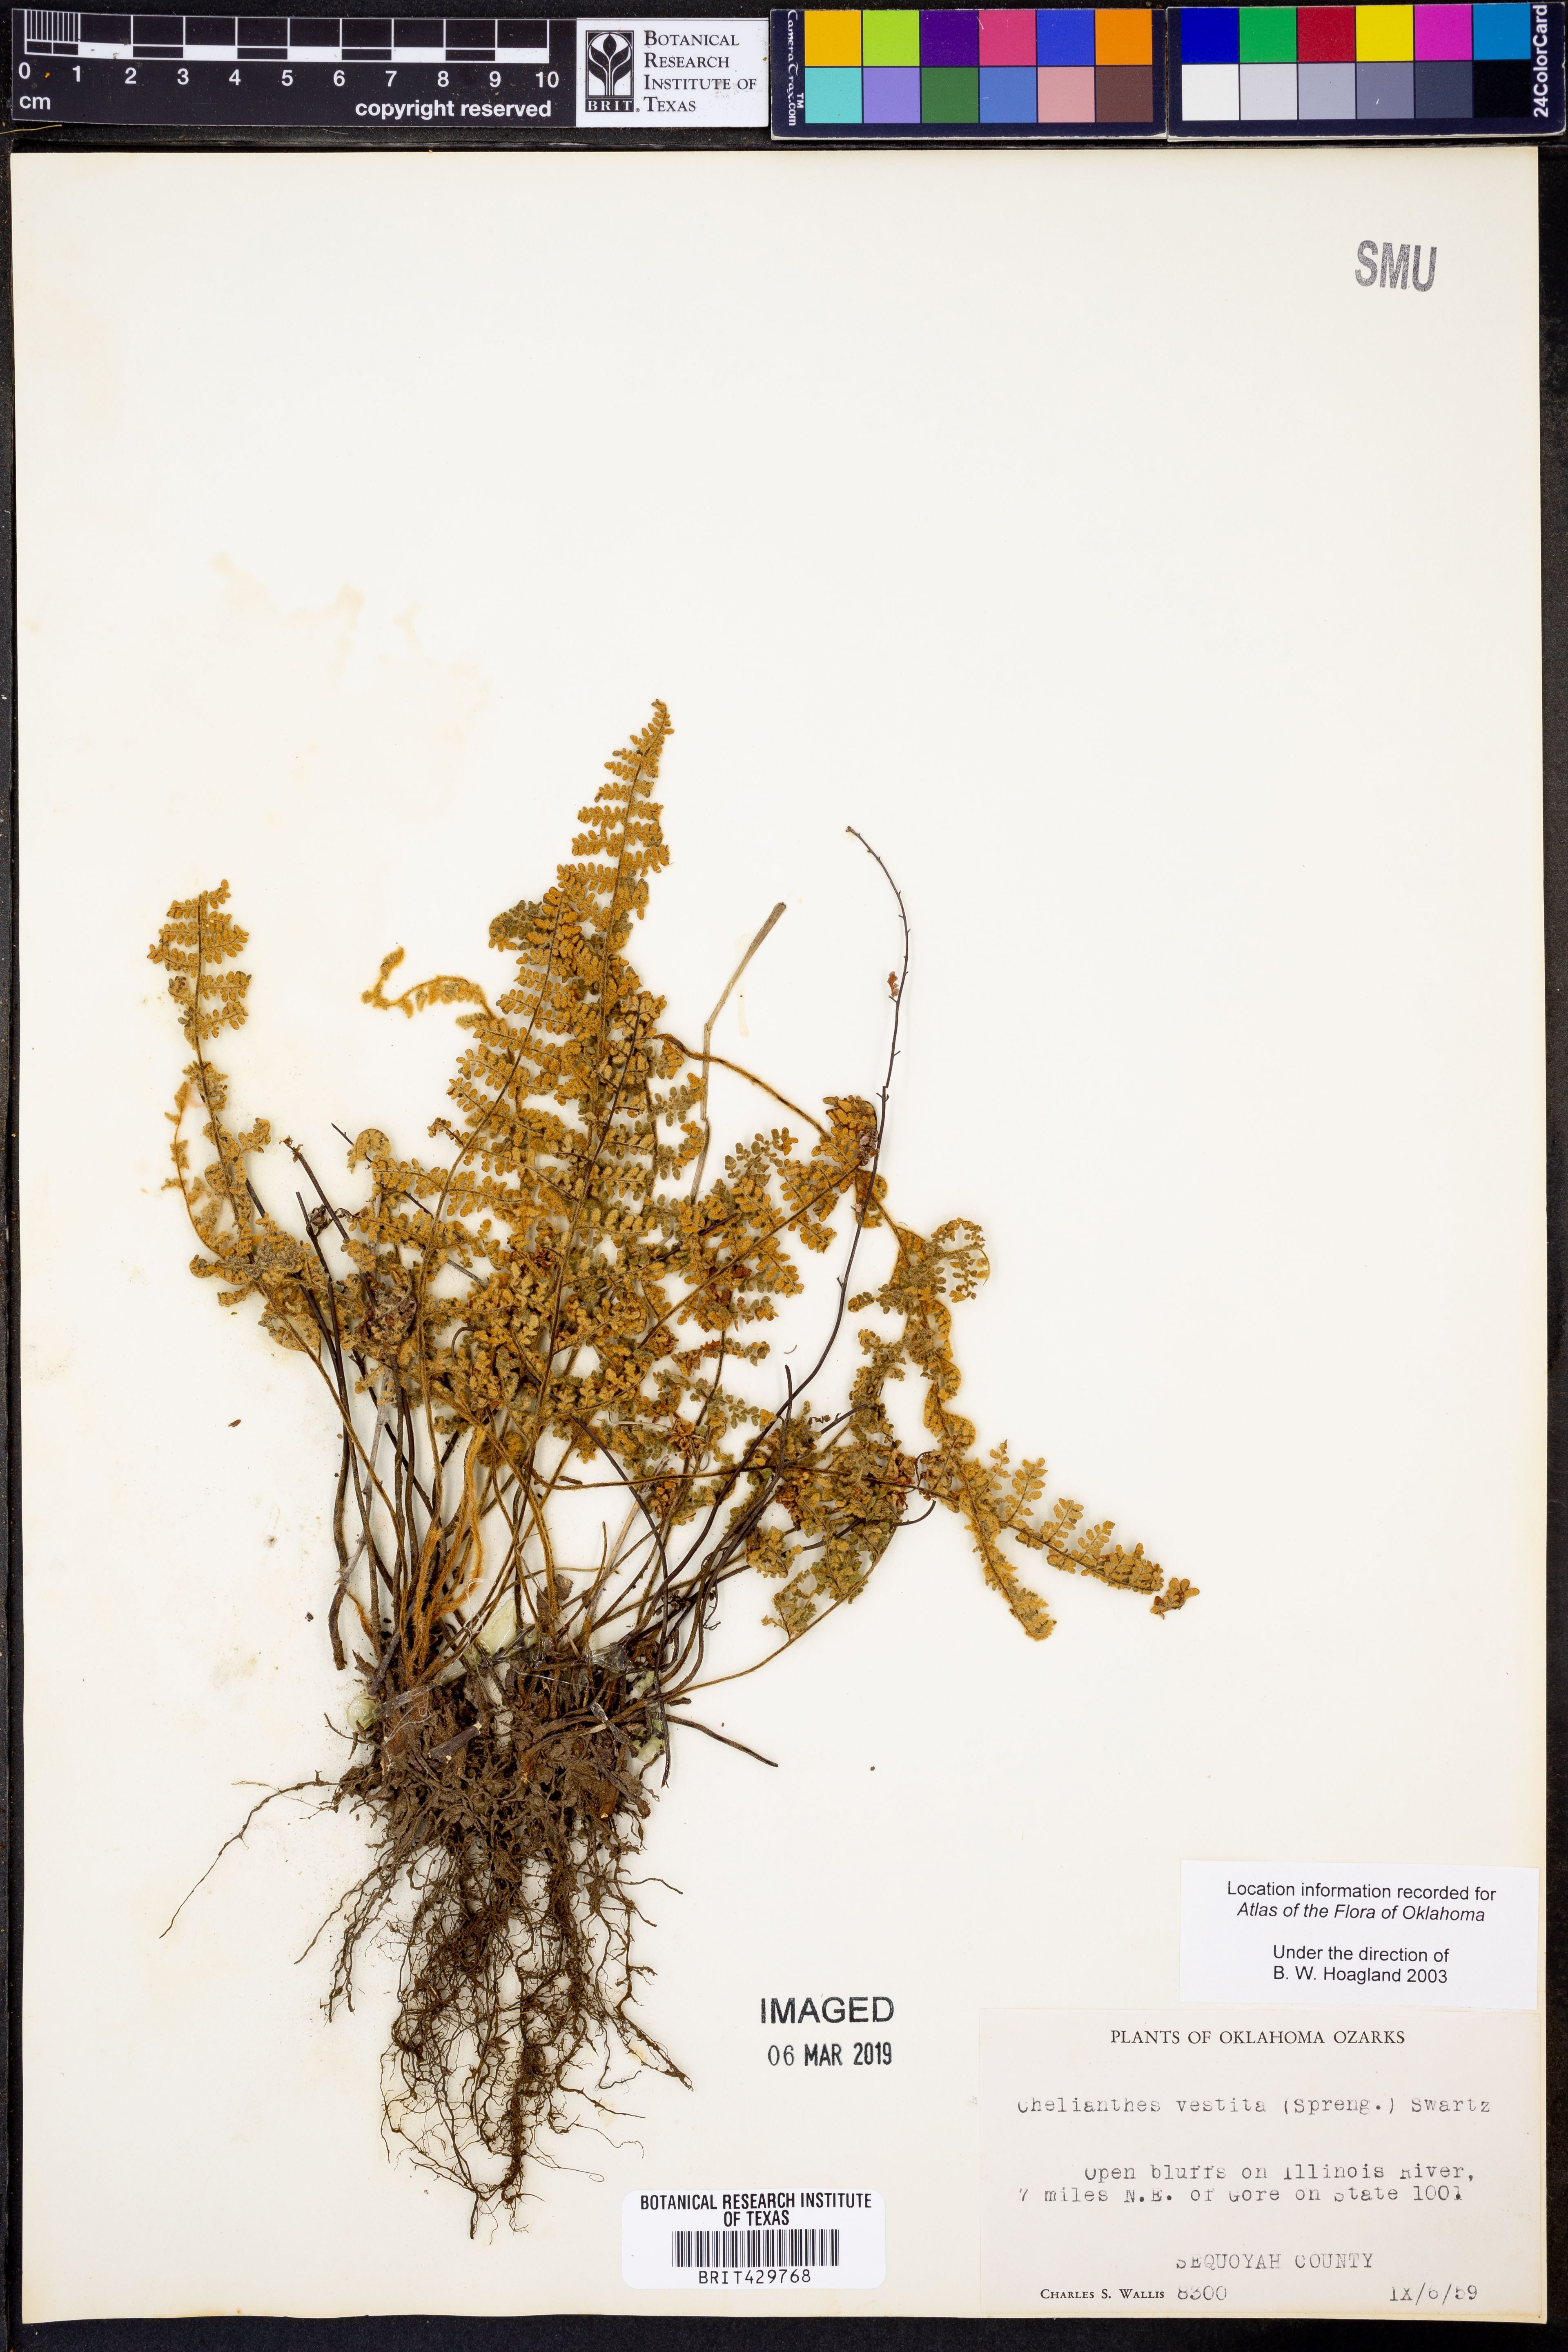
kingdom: Plantae
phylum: Tracheophyta
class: Polypodiopsida
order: Polypodiales
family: Pteridaceae
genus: Myriopteris
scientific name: Myriopteris lanosa
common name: Hairy lip fern
